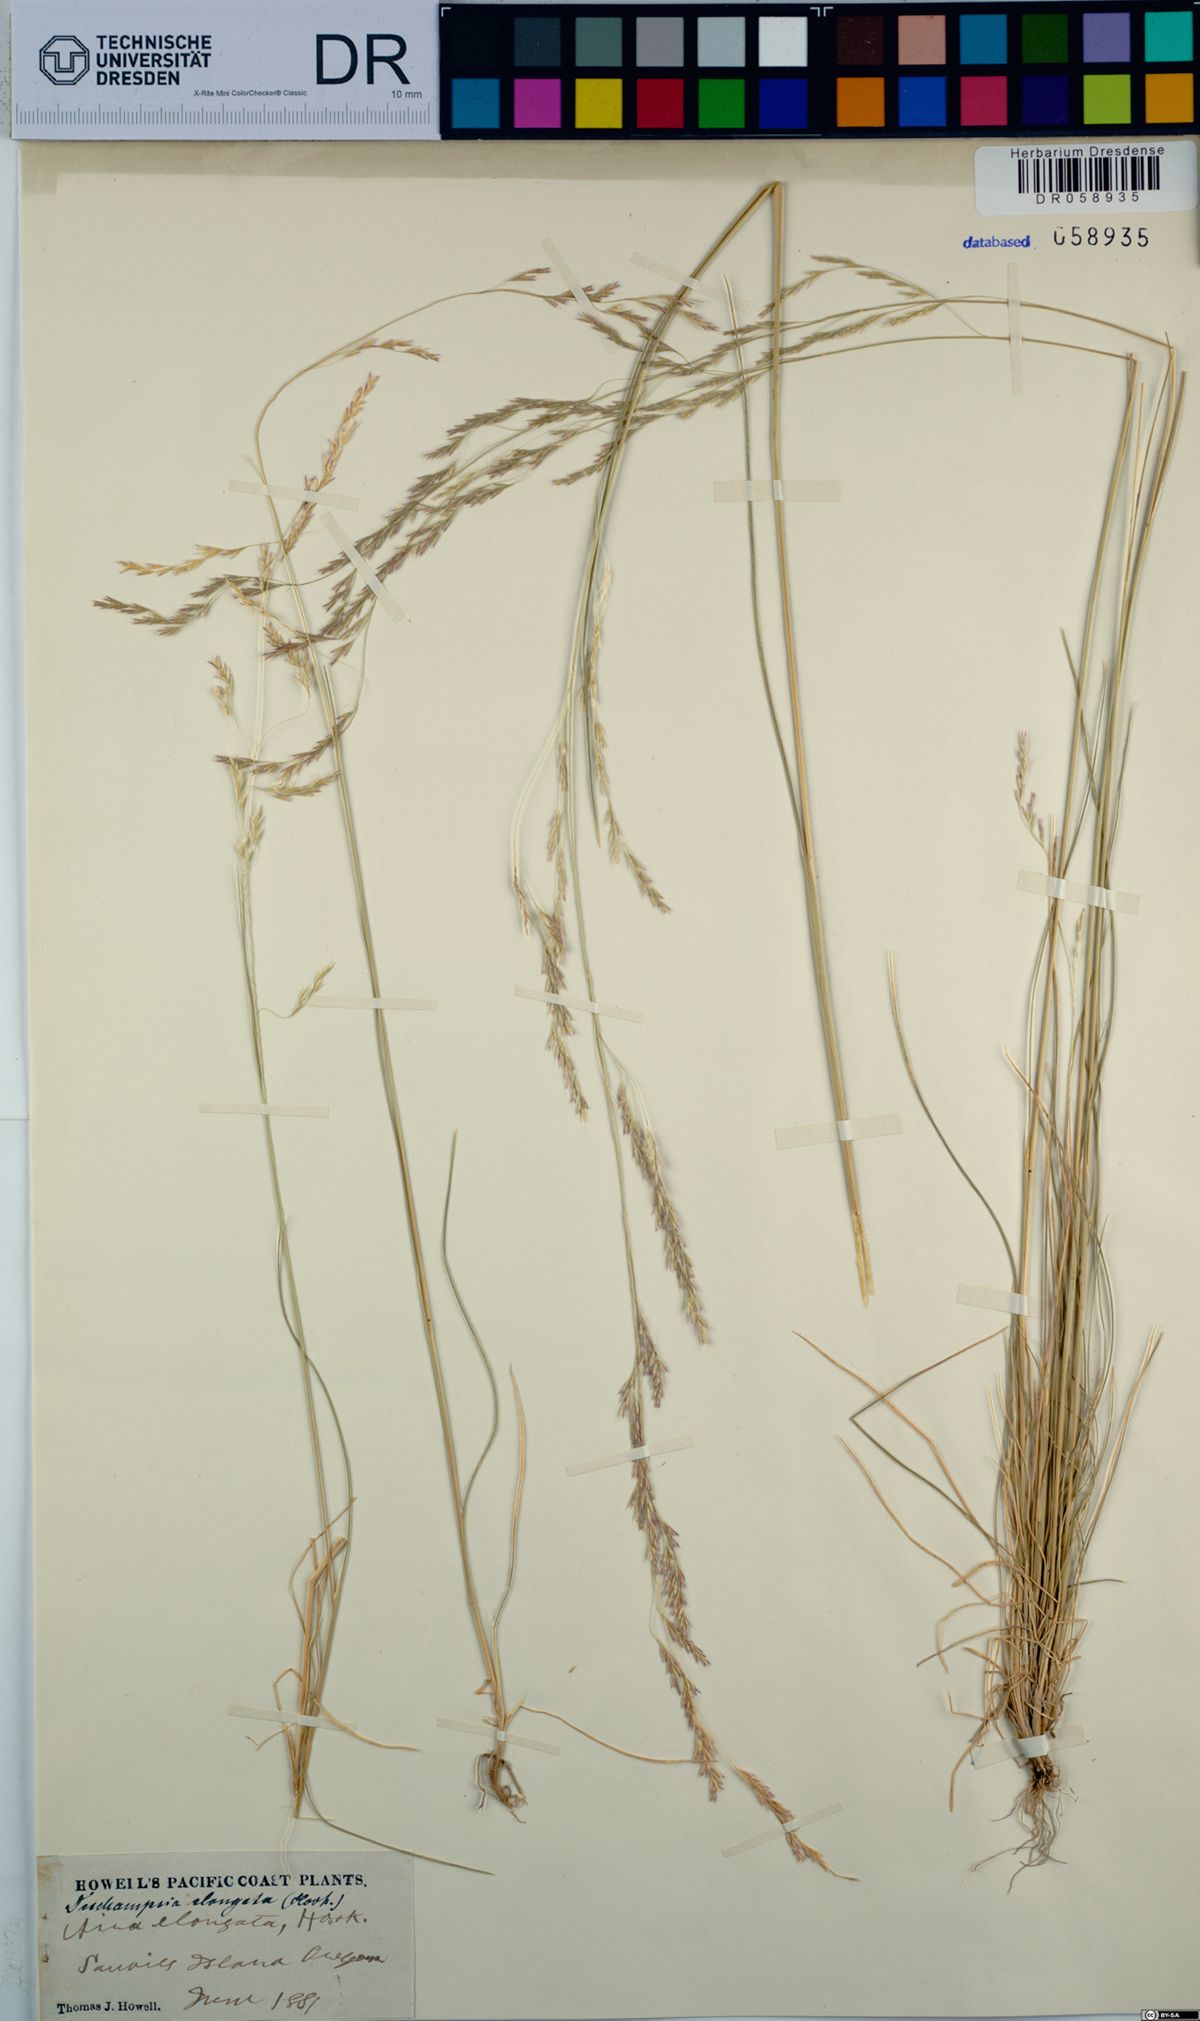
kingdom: Plantae
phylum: Tracheophyta
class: Liliopsida
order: Poales
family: Poaceae
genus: Deschampsia
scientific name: Deschampsia elongata
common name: Slender hairgrass
